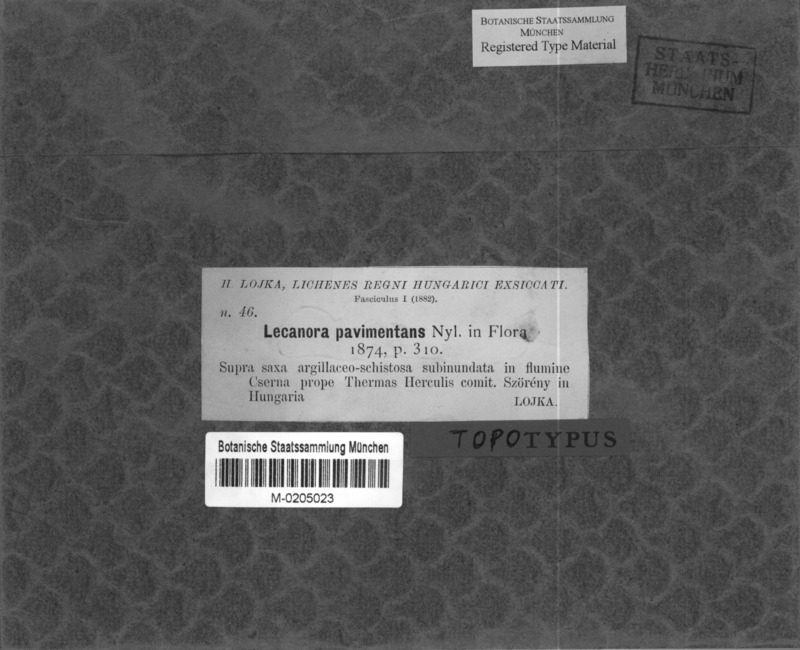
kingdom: Fungi
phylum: Ascomycota
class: Lecanoromycetes
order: Pertusariales
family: Megasporaceae
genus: Aspicilia
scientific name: Aspicilia
